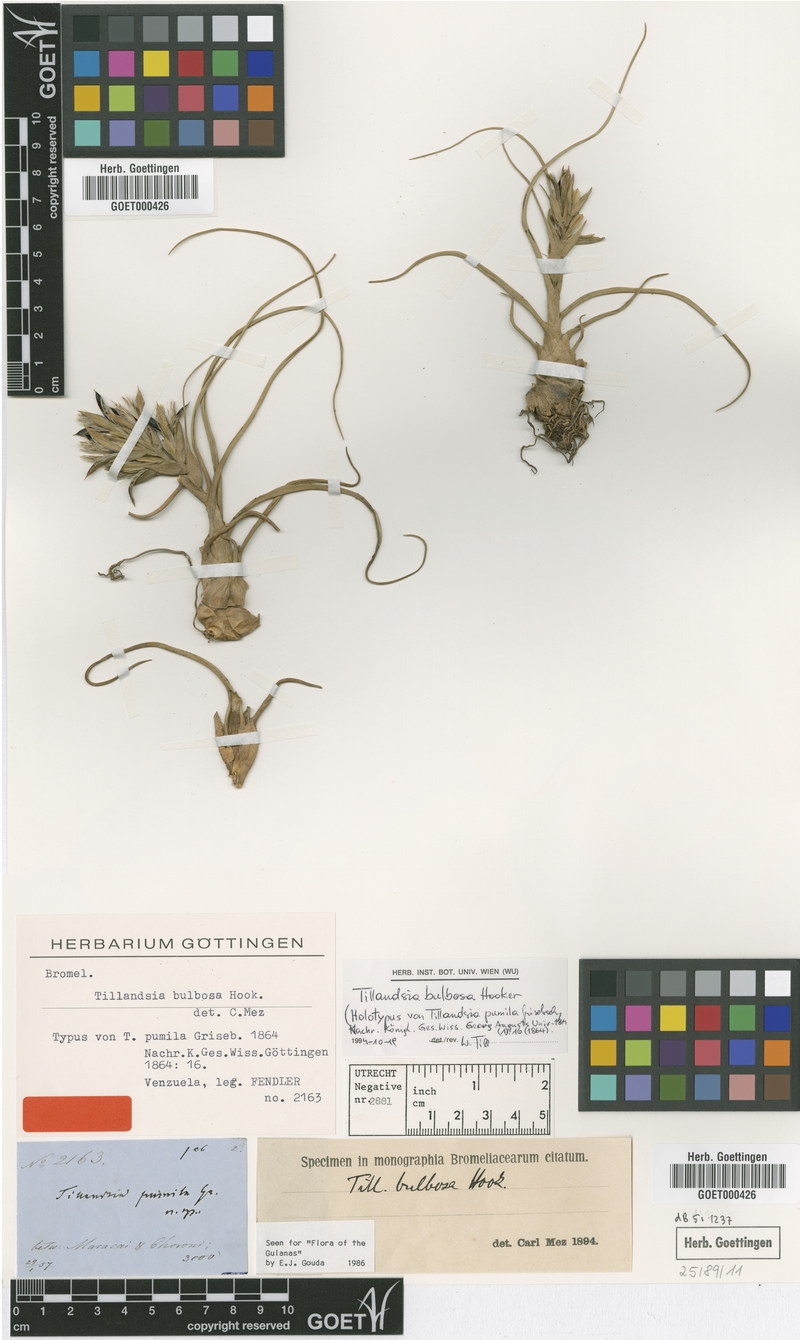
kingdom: Plantae
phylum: Tracheophyta
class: Liliopsida
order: Poales
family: Bromeliaceae
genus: Tillandsia
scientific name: Tillandsia bulbosa
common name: Bulbous airplant
